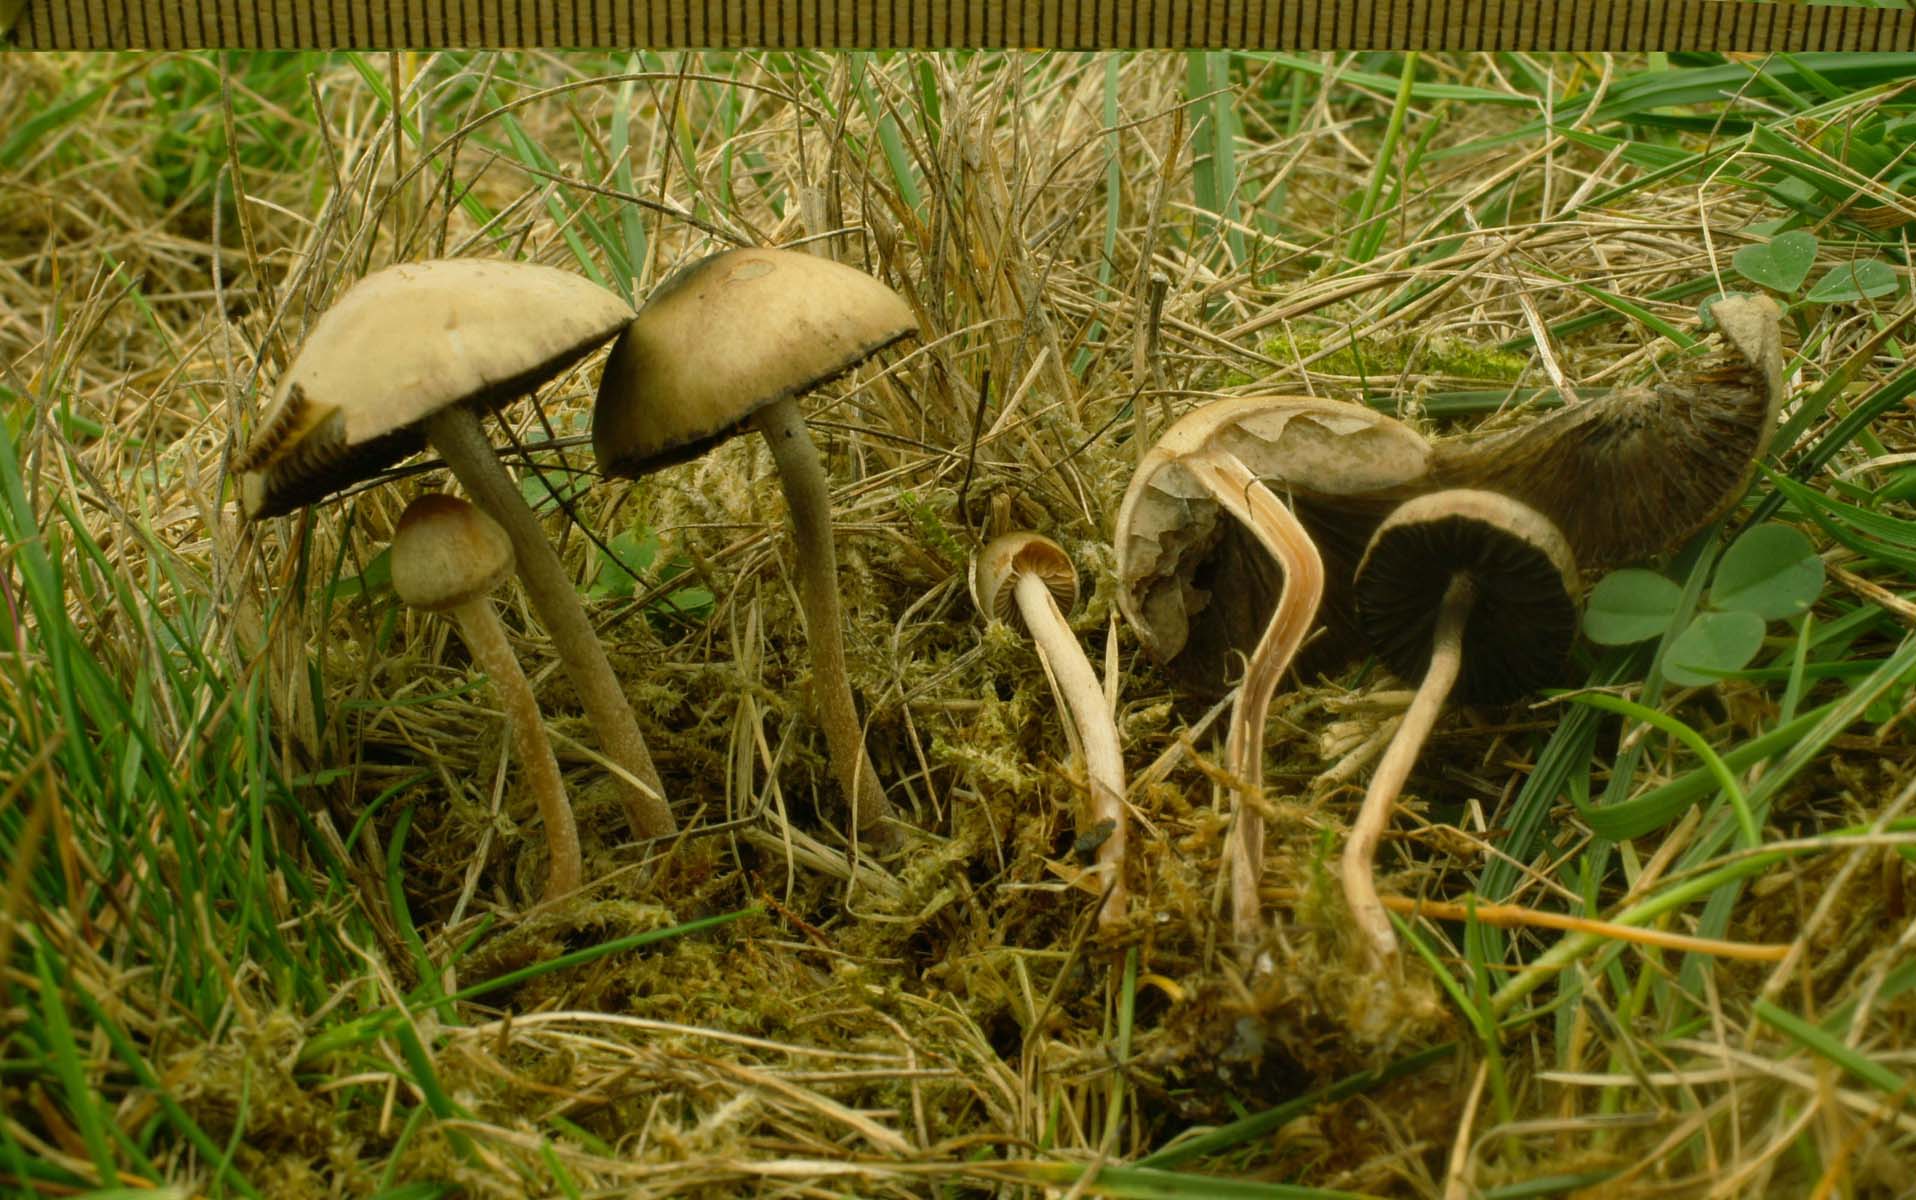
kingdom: Fungi
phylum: Basidiomycota
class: Agaricomycetes
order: Agaricales
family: Bolbitiaceae
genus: Panaeolus
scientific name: Panaeolus olivaceus
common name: lysstokket glanshat
